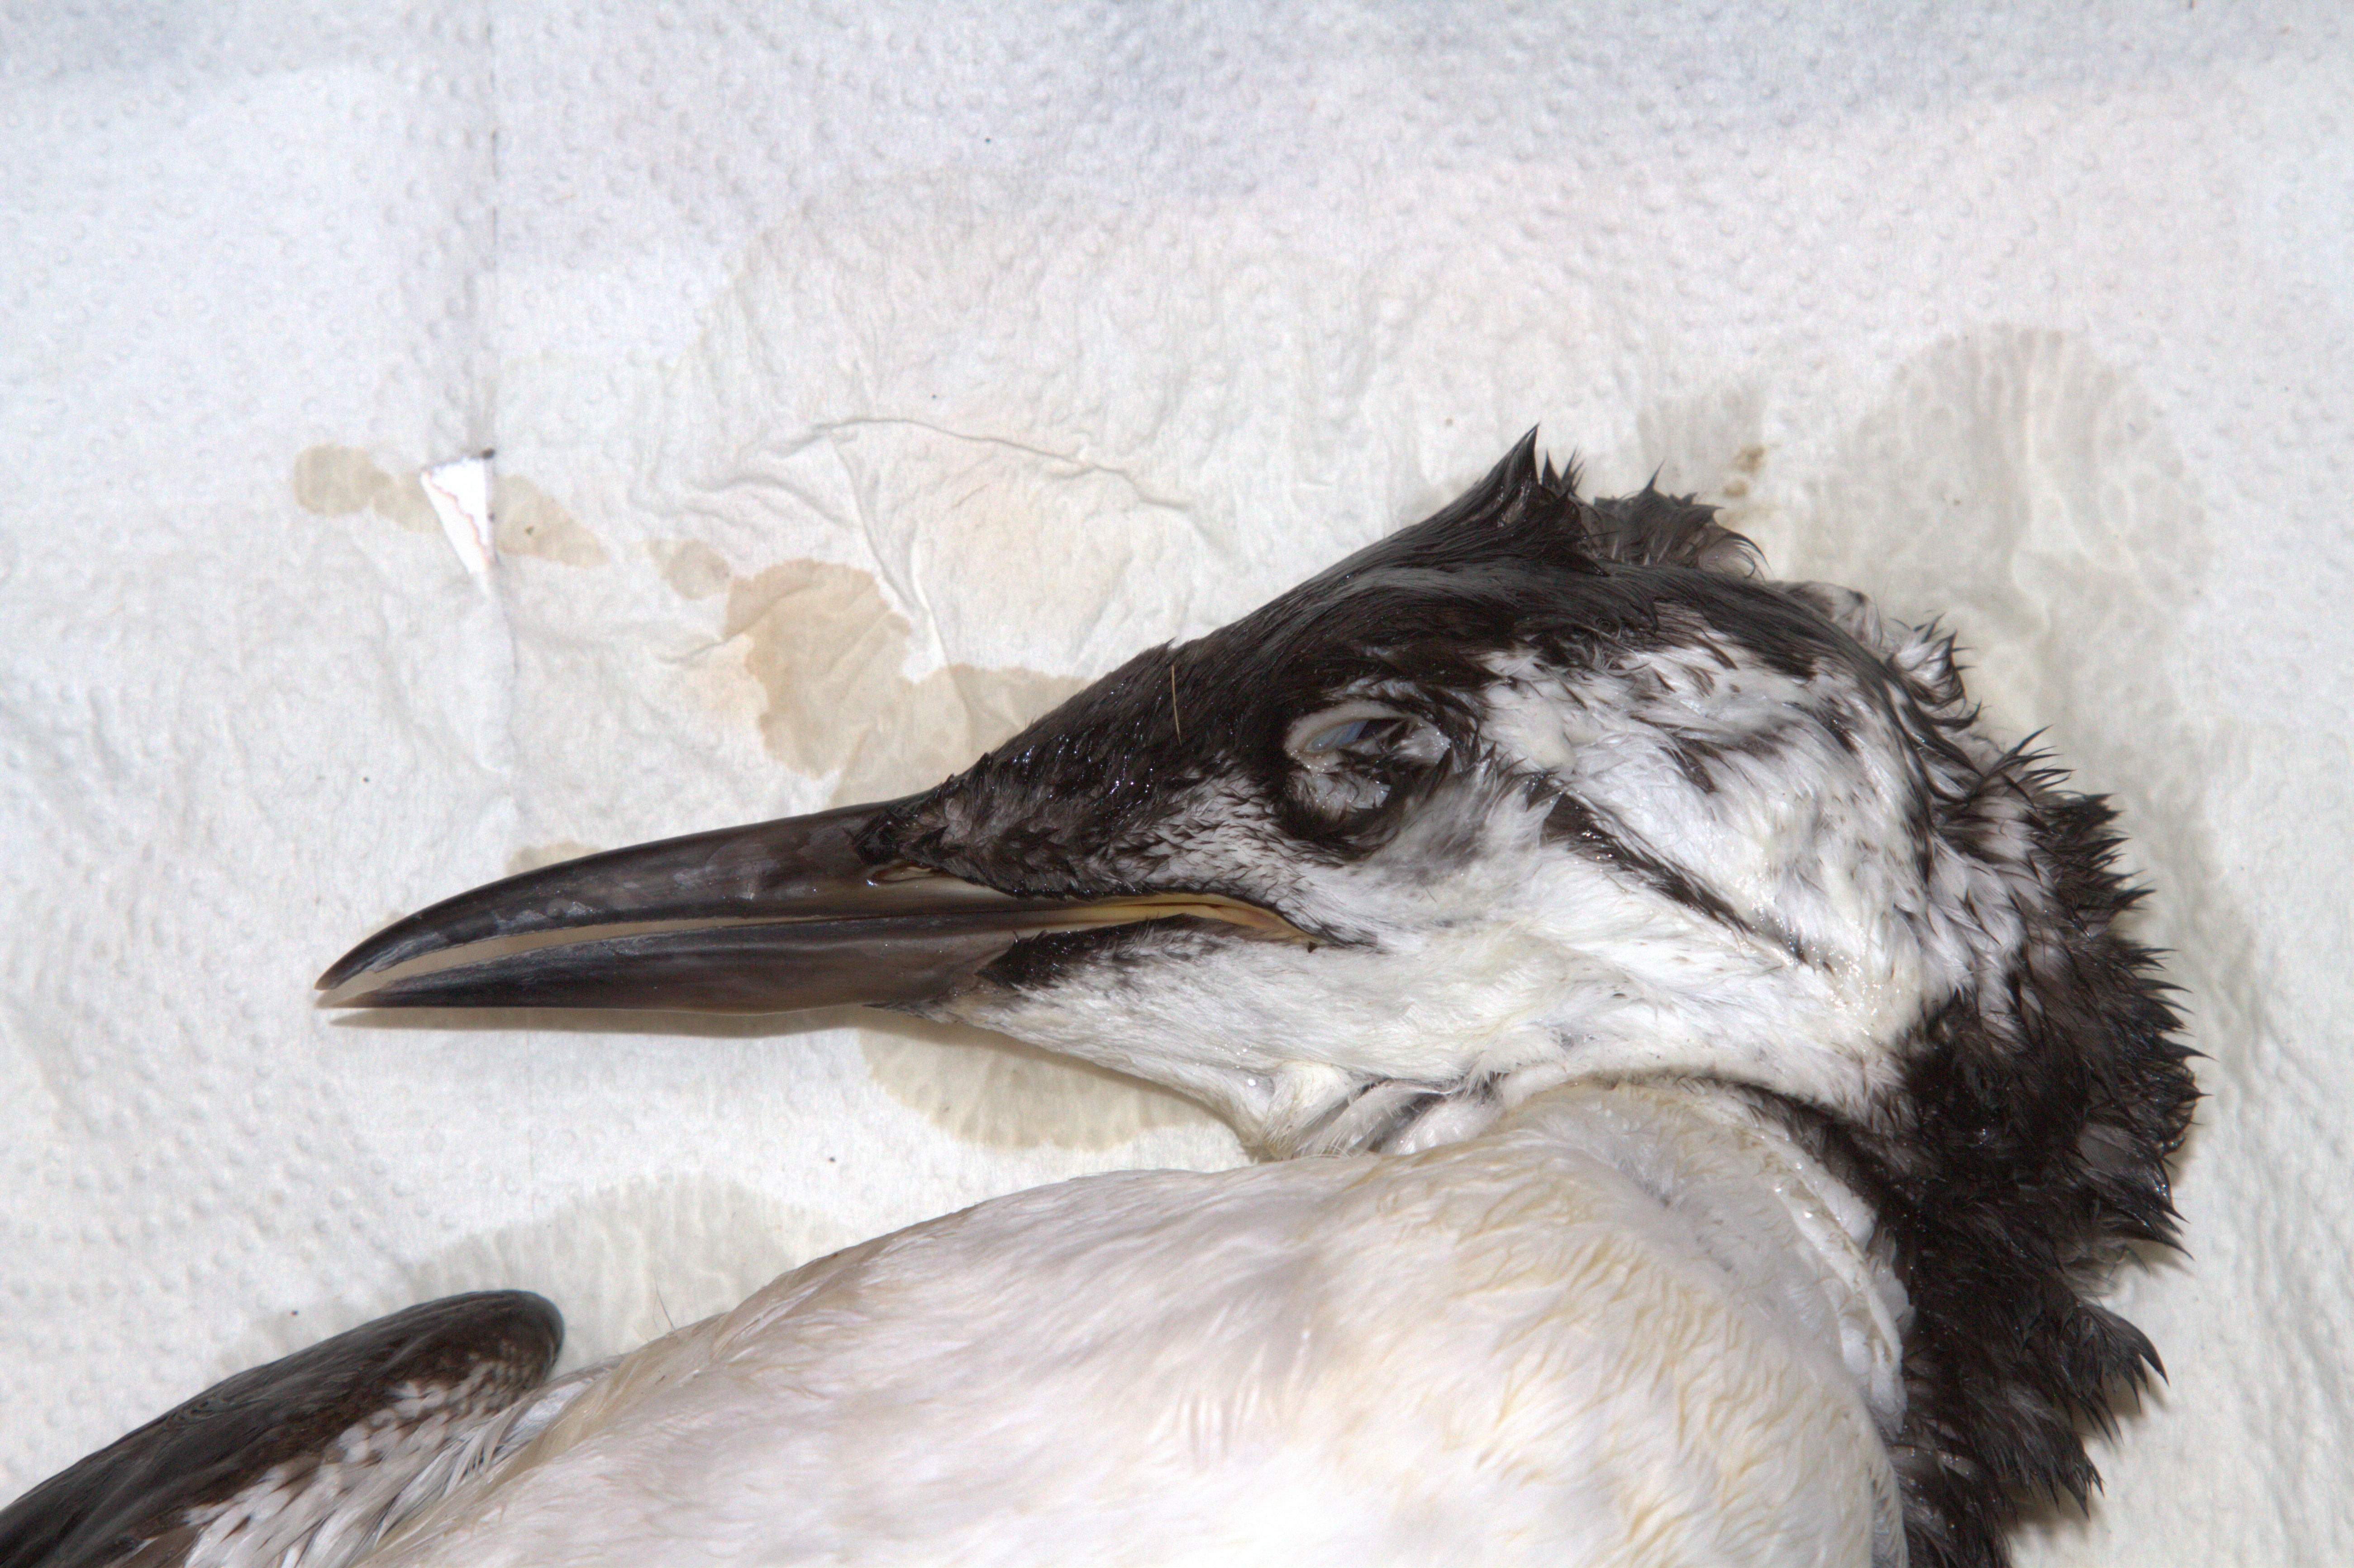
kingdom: Animalia
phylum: Chordata
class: Aves
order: Charadriiformes
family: Alcidae
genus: Uria
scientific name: Uria aalge
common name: Common murre
